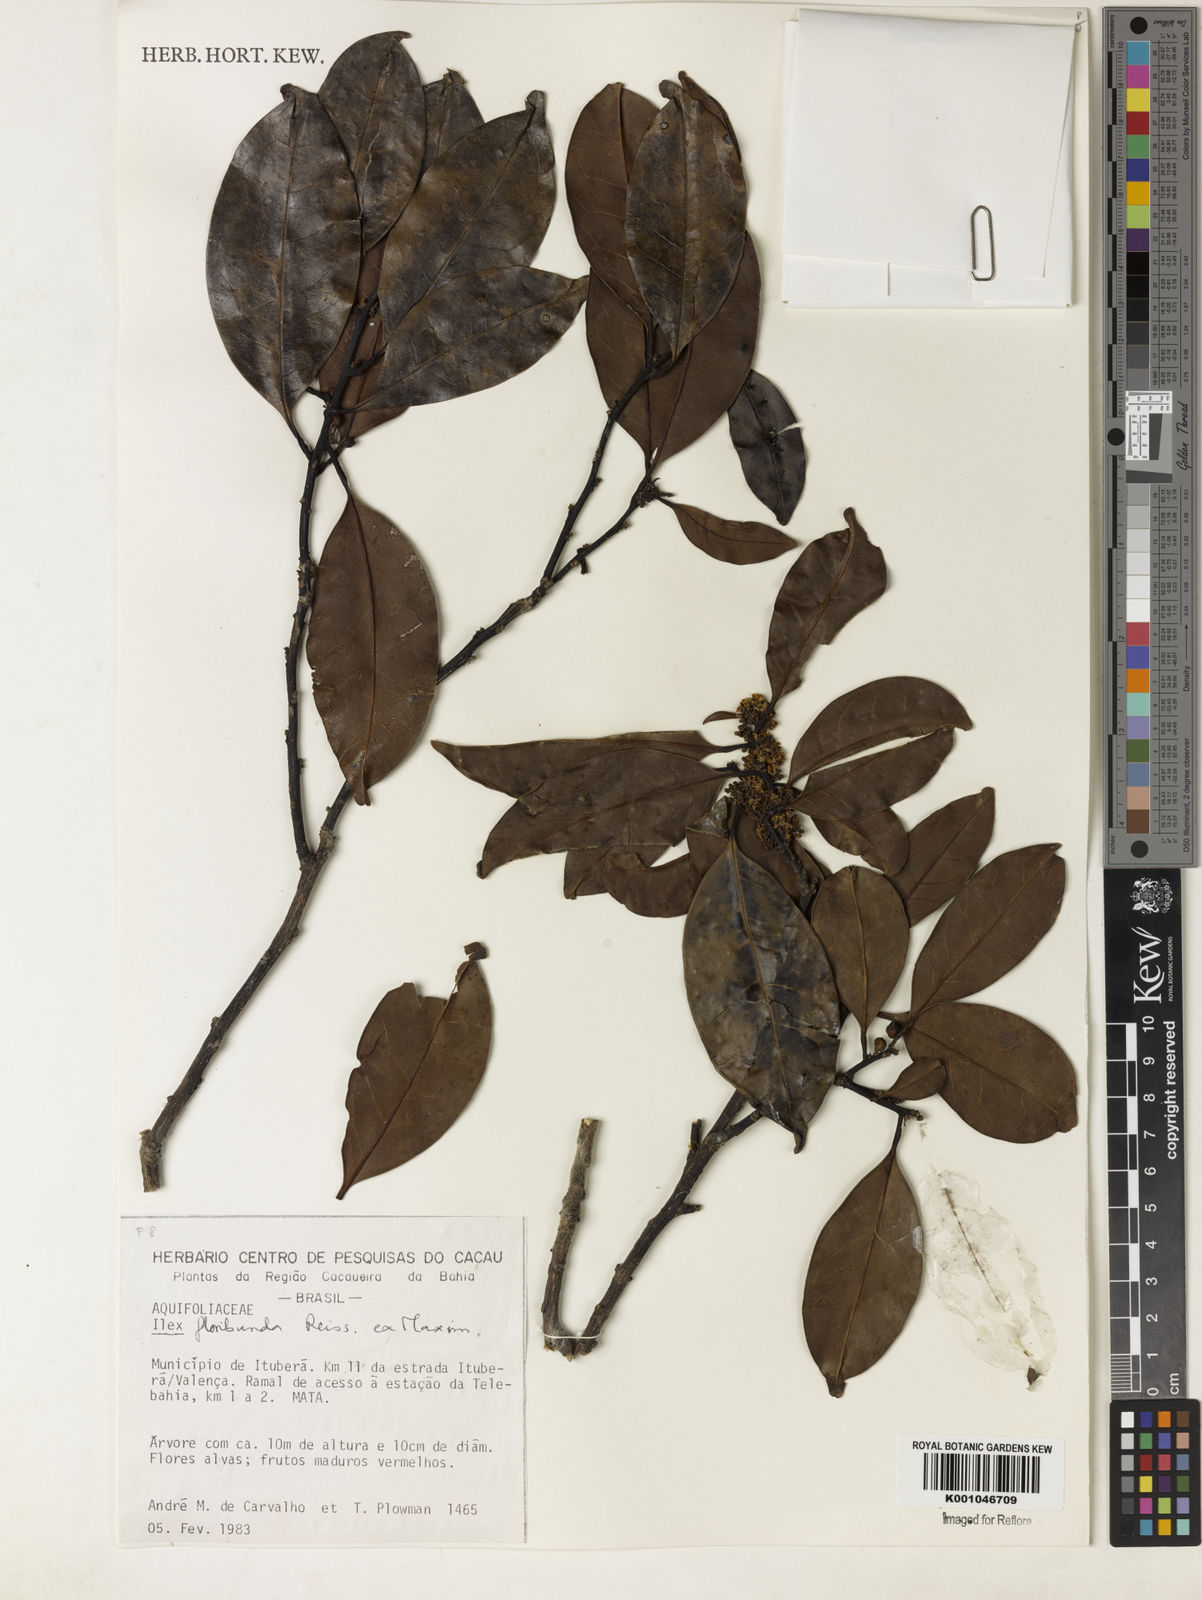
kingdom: Plantae
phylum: Tracheophyta
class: Magnoliopsida
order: Aquifoliales
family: Aquifoliaceae
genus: Ilex
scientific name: Ilex floribunda
